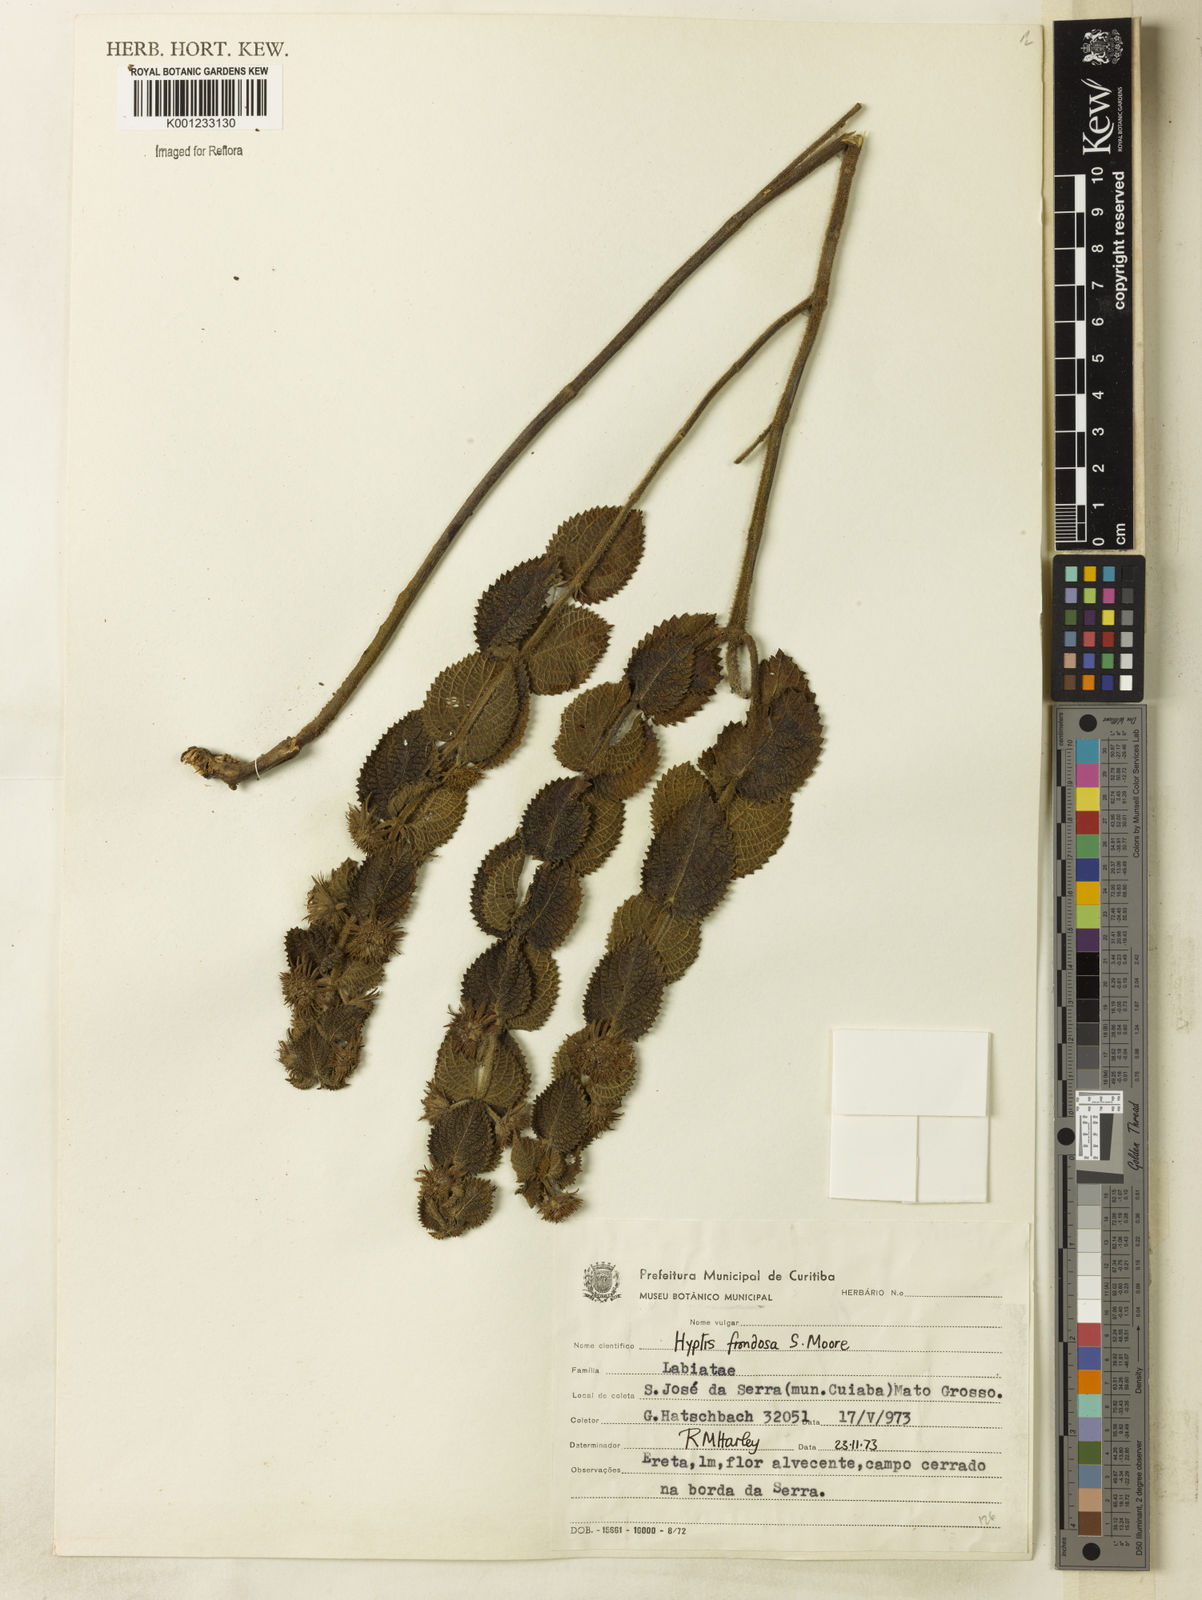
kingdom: Plantae
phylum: Tracheophyta
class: Magnoliopsida
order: Lamiales
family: Lamiaceae
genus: Hyptis
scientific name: Hyptis frondosa
